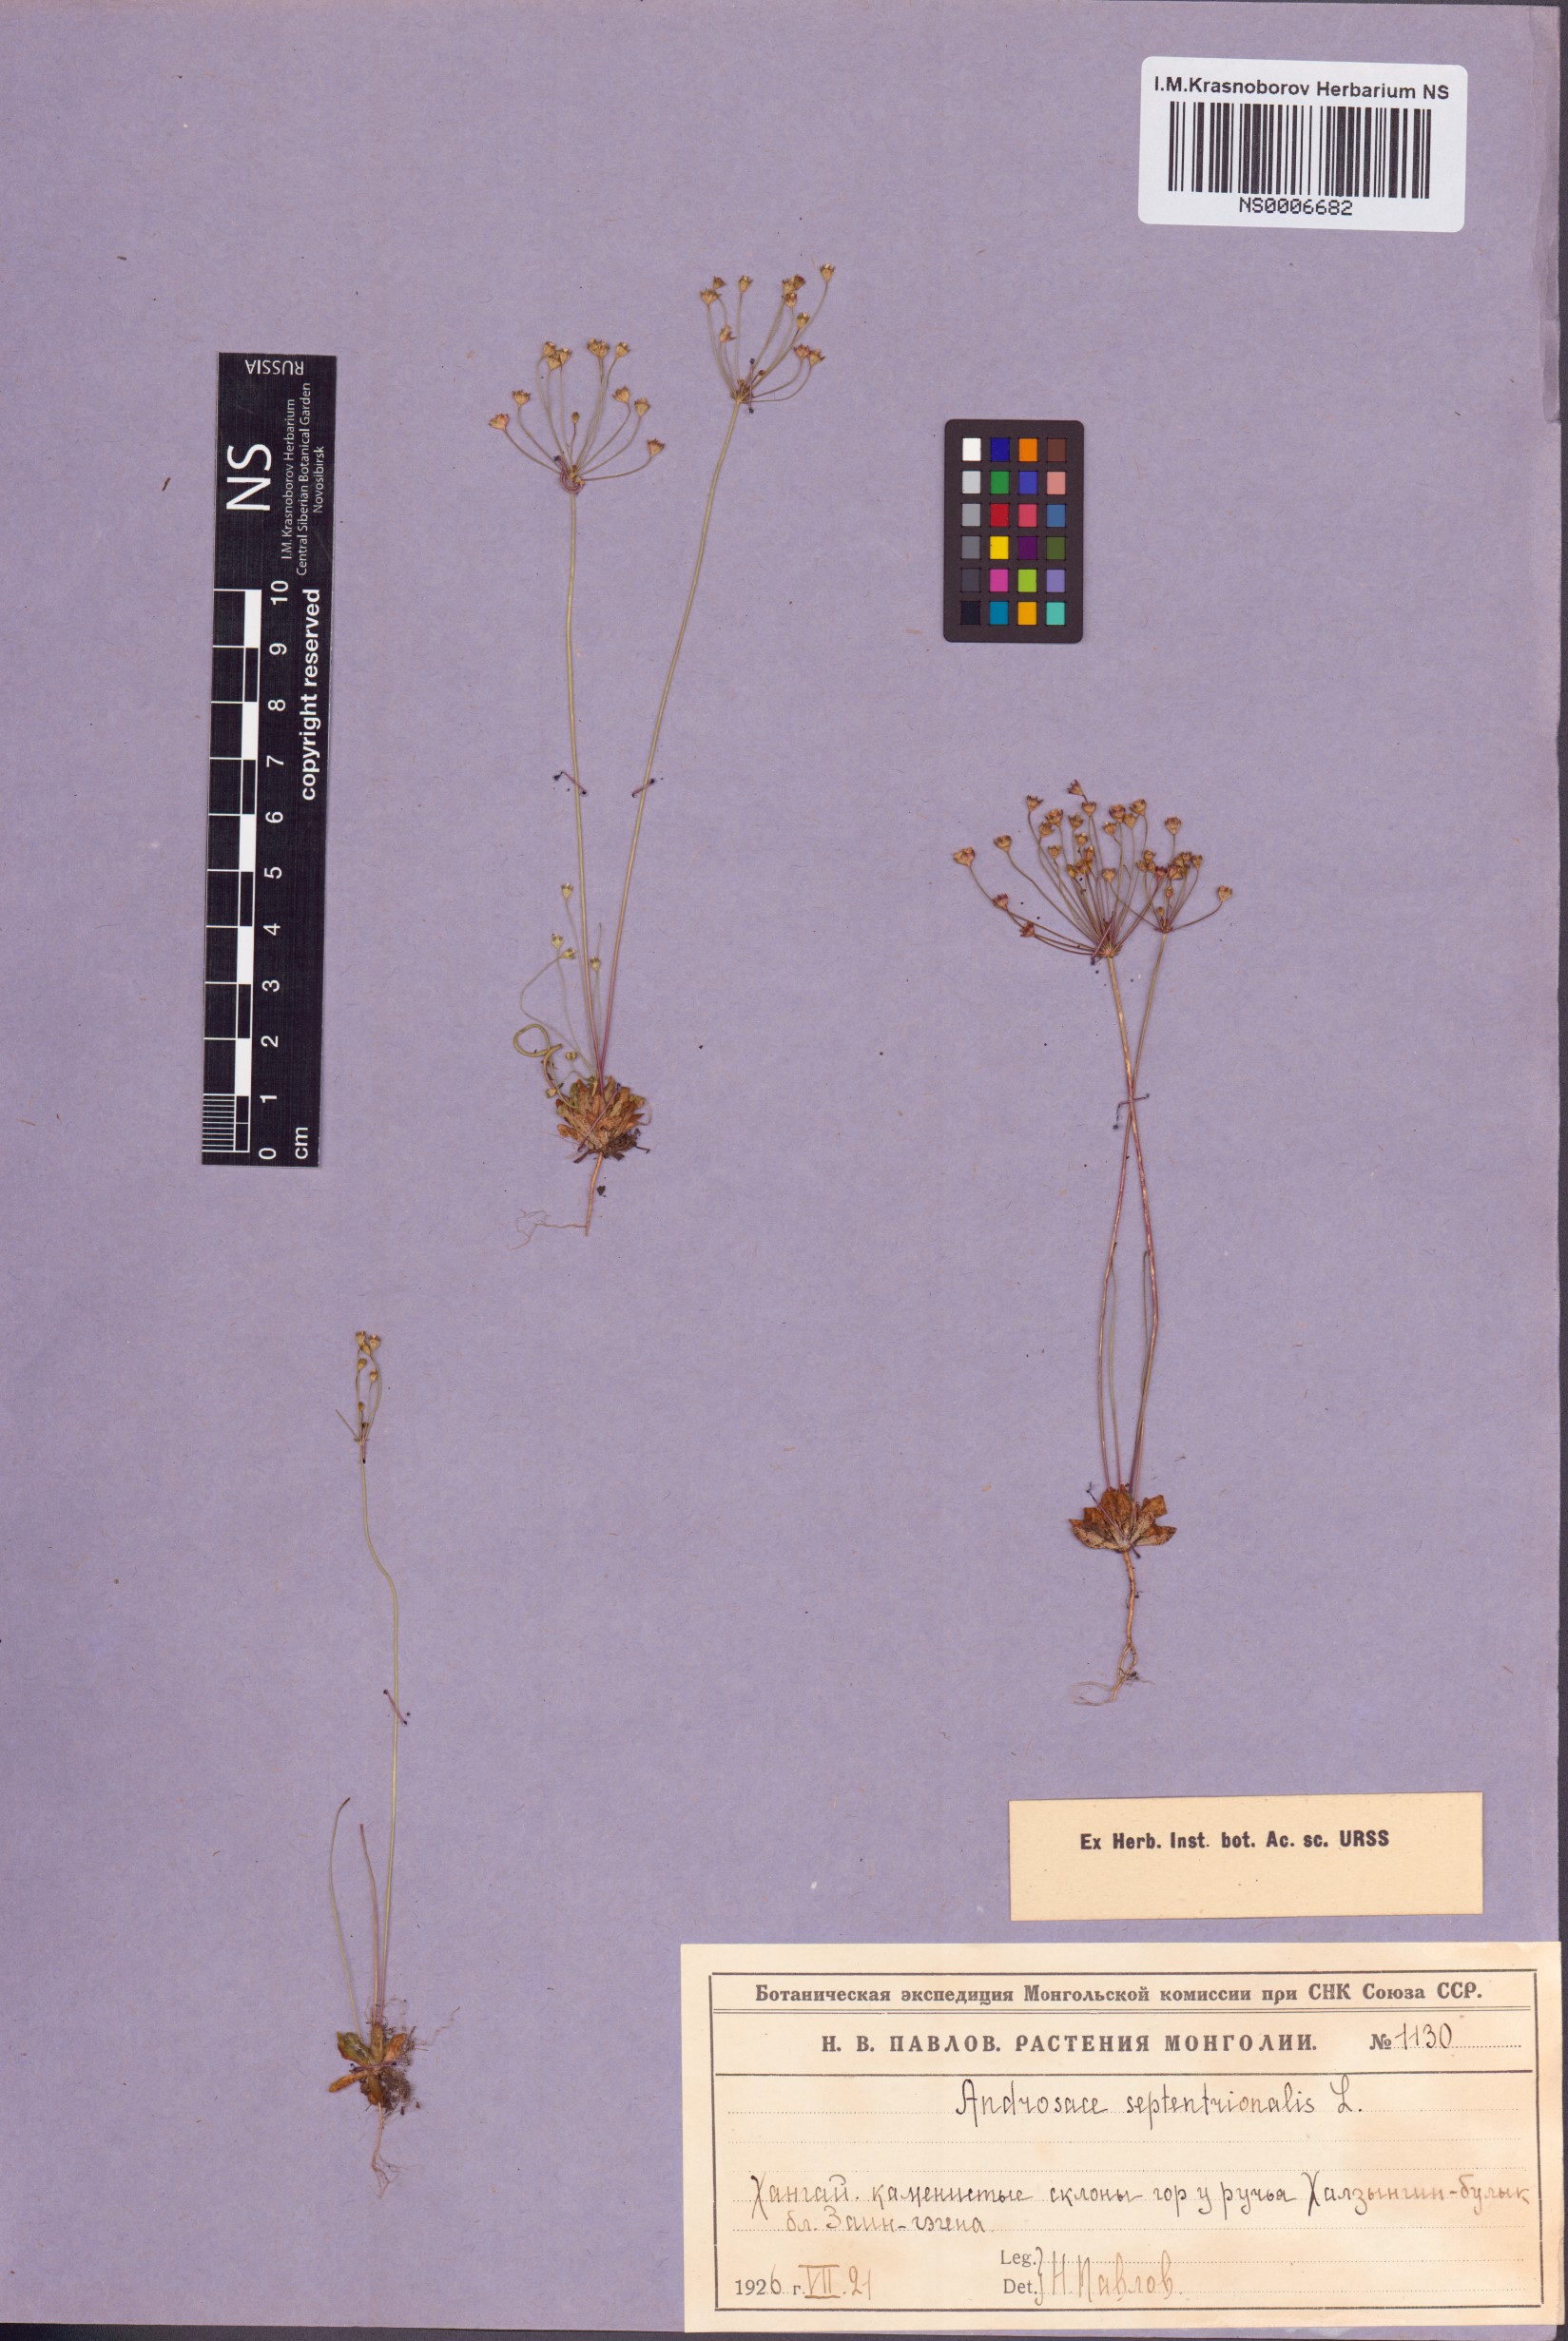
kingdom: Plantae
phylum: Tracheophyta
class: Magnoliopsida
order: Ericales
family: Primulaceae
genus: Androsace
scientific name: Androsace septentrionalis
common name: Hairy northern fairy-candelabra
